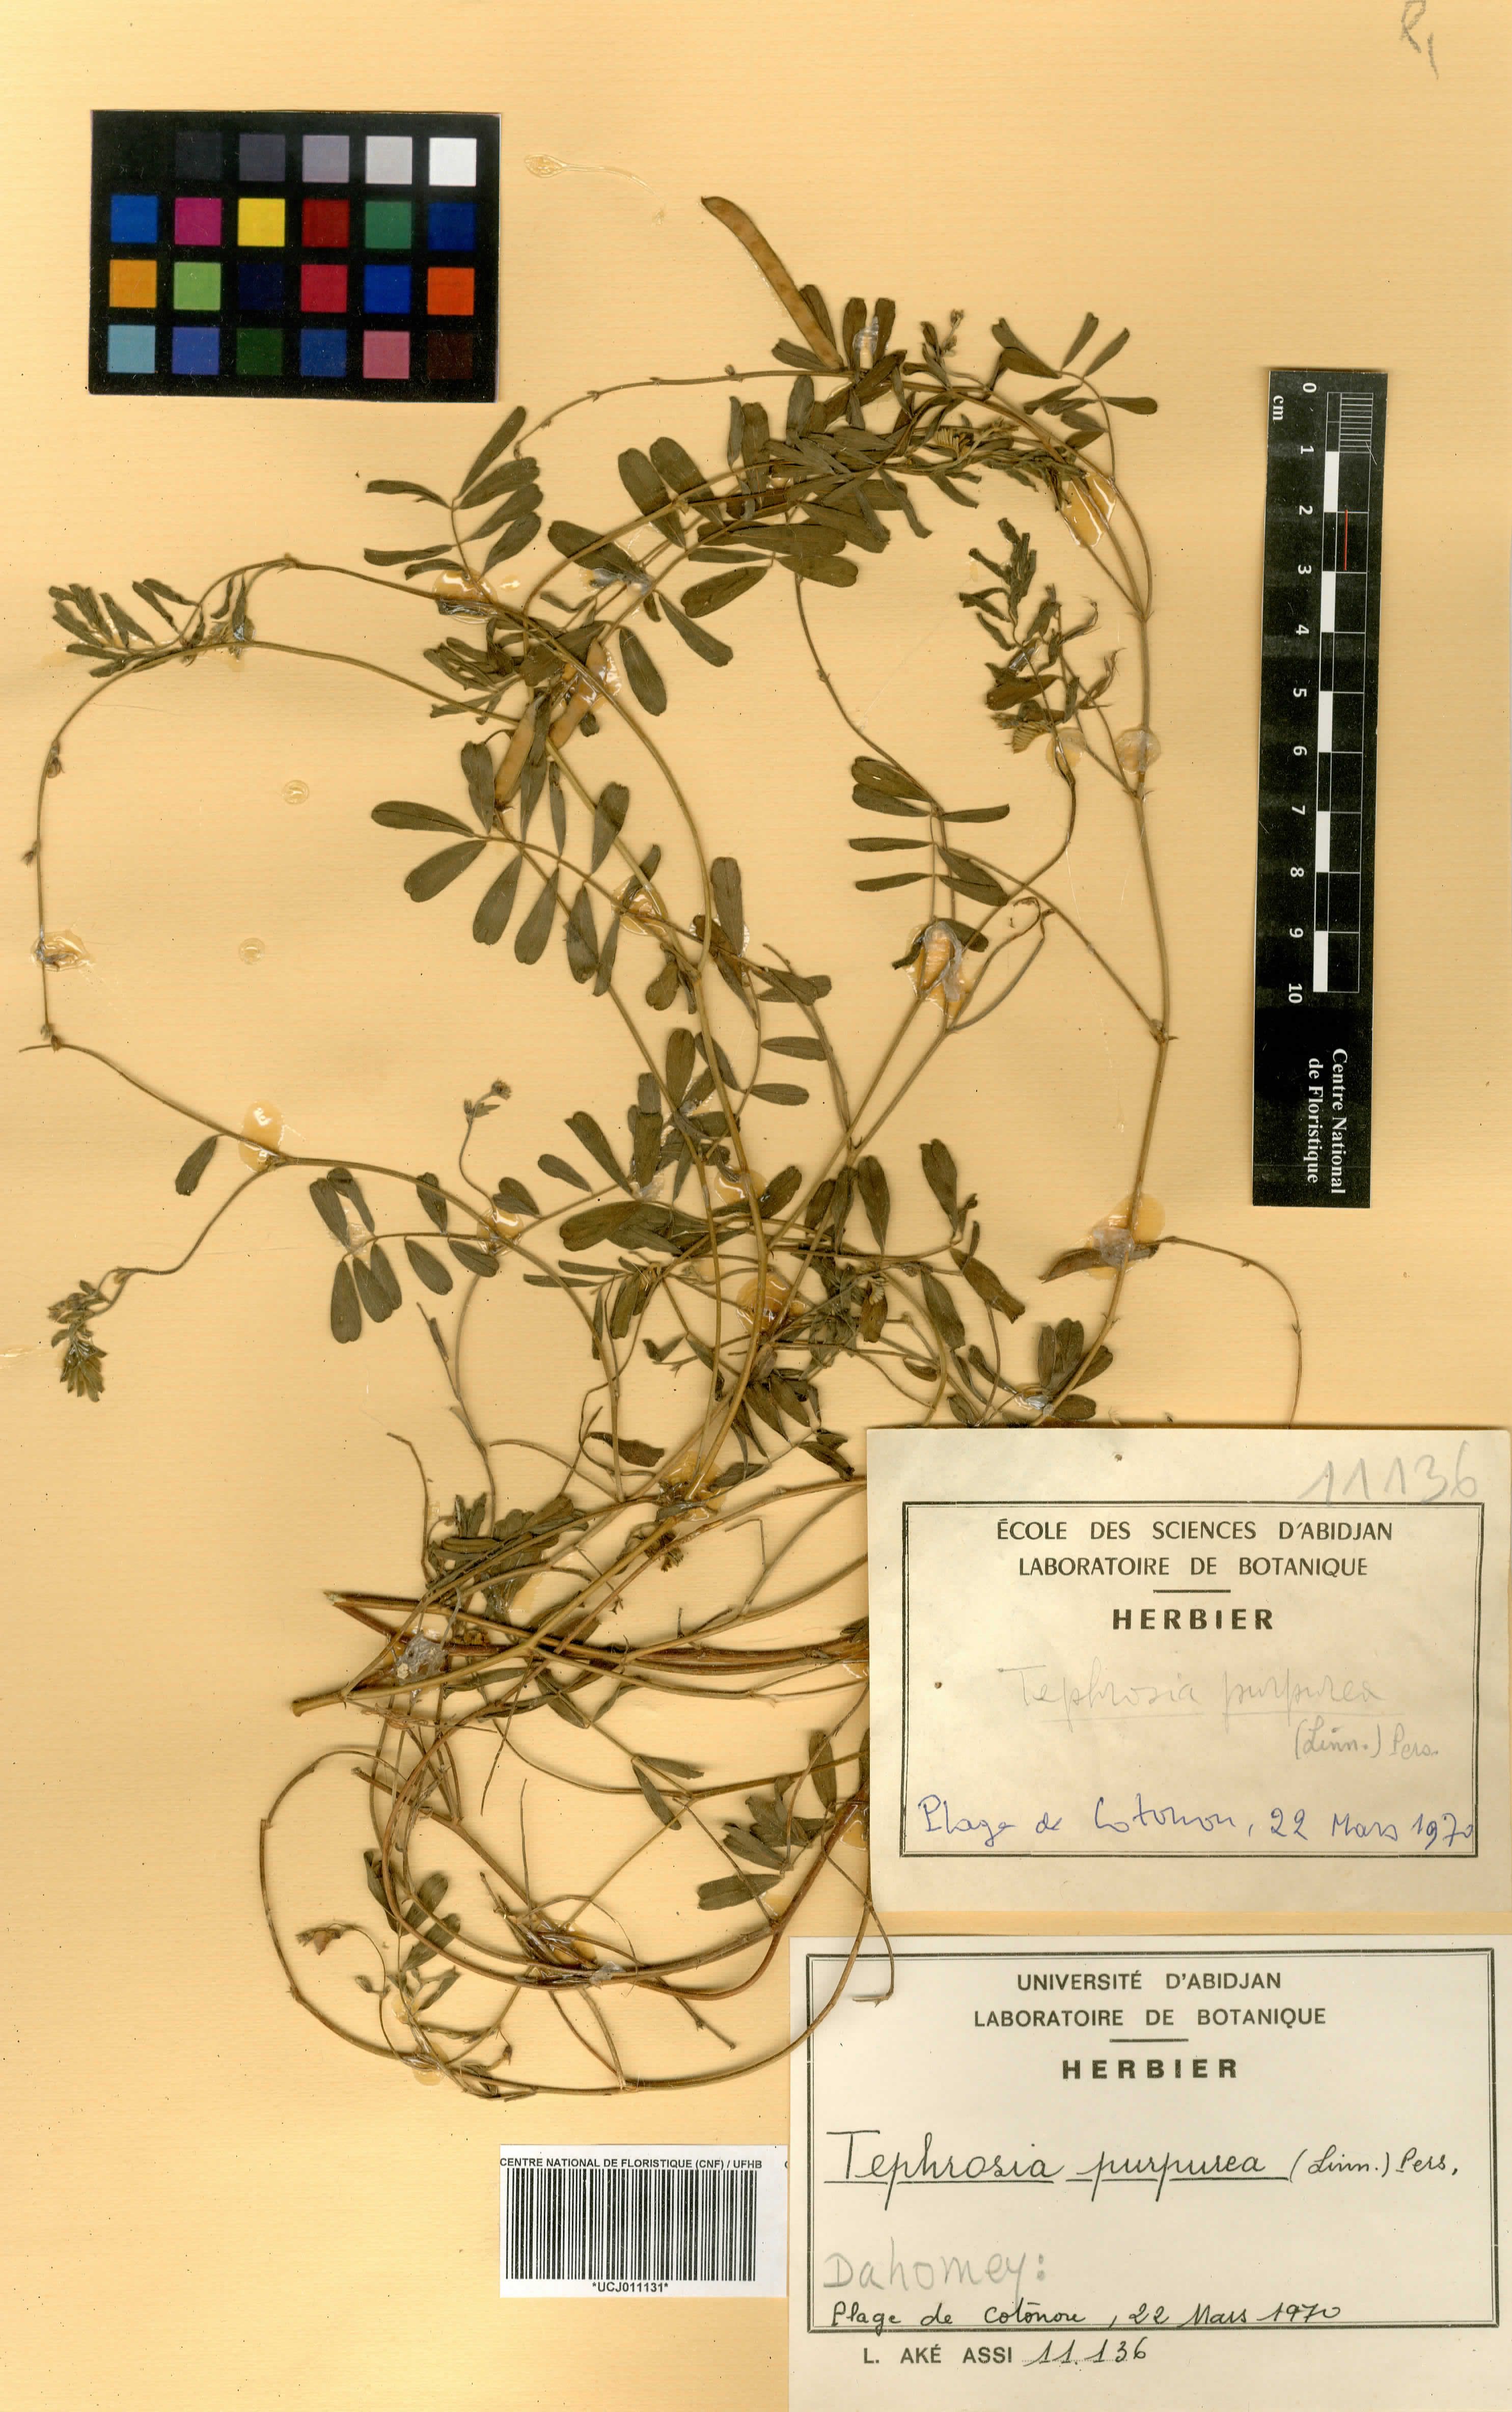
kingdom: Plantae
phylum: Tracheophyta
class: Magnoliopsida
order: Fabales
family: Fabaceae
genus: Tephrosia
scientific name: Tephrosia purpurea
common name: Fishpoison
